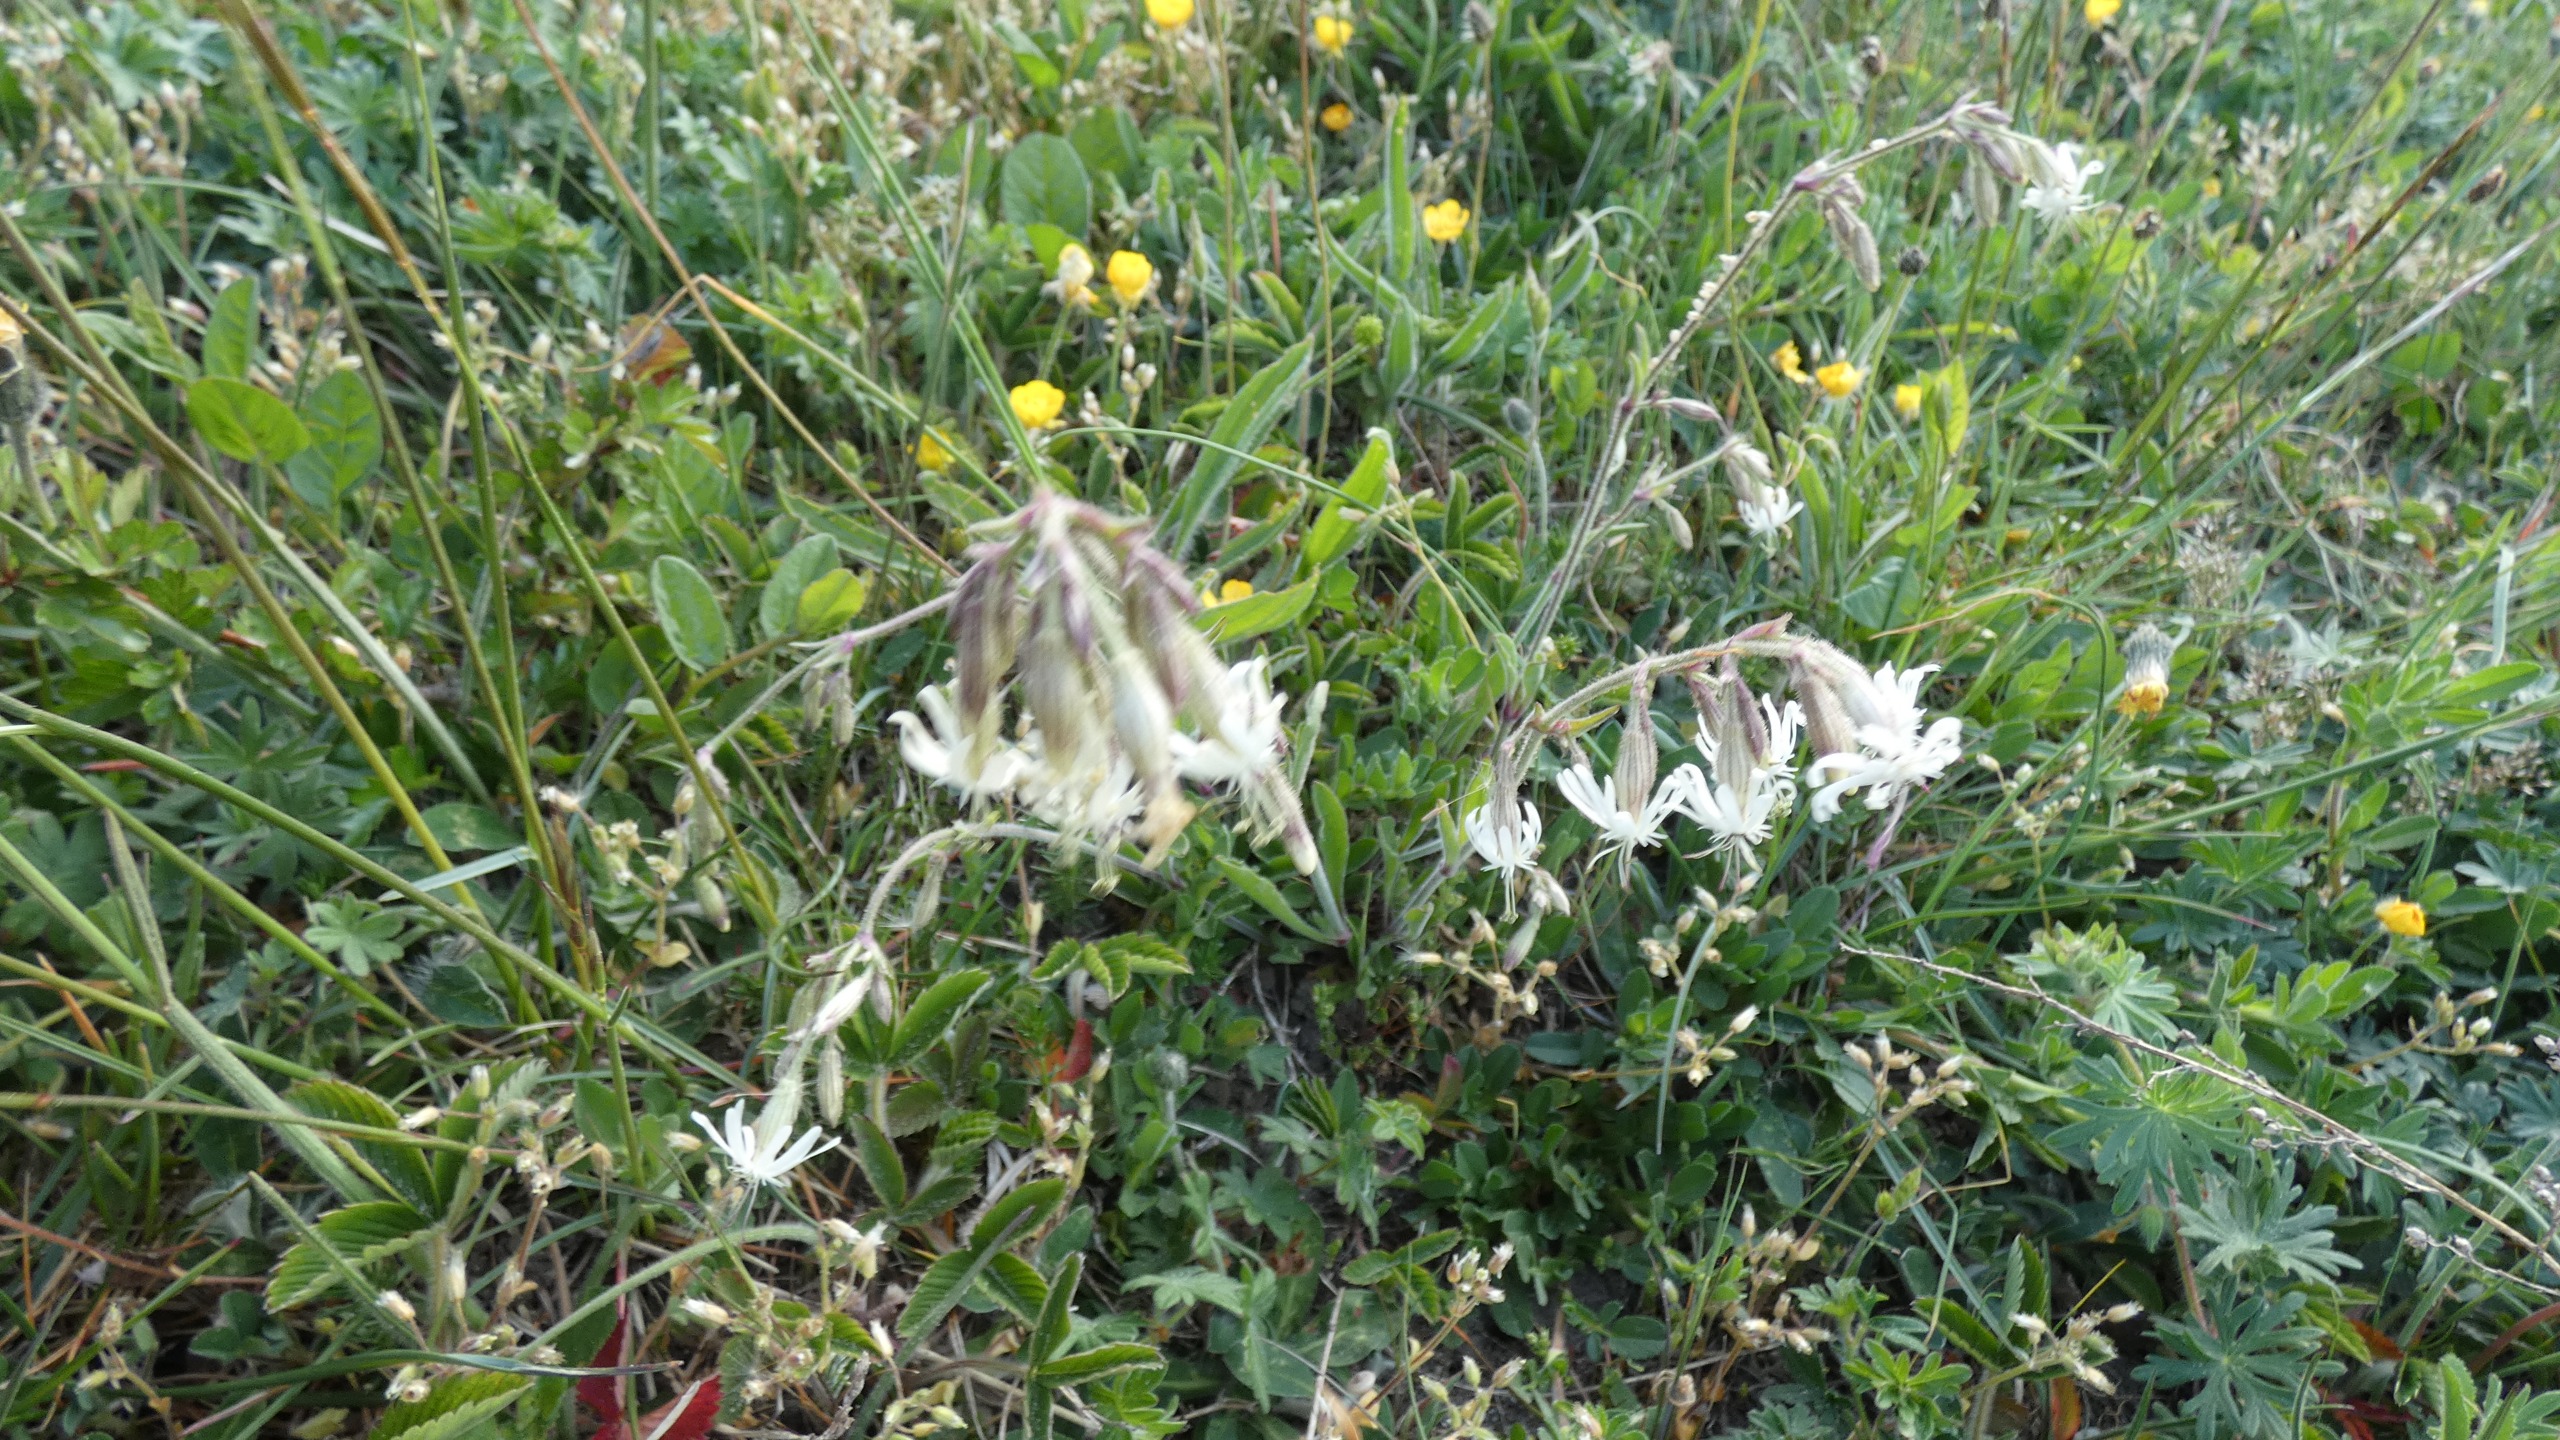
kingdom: Plantae
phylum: Tracheophyta
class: Magnoliopsida
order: Caryophyllales
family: Caryophyllaceae
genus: Silene
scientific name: Silene nutans
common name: Nikkende limurt
